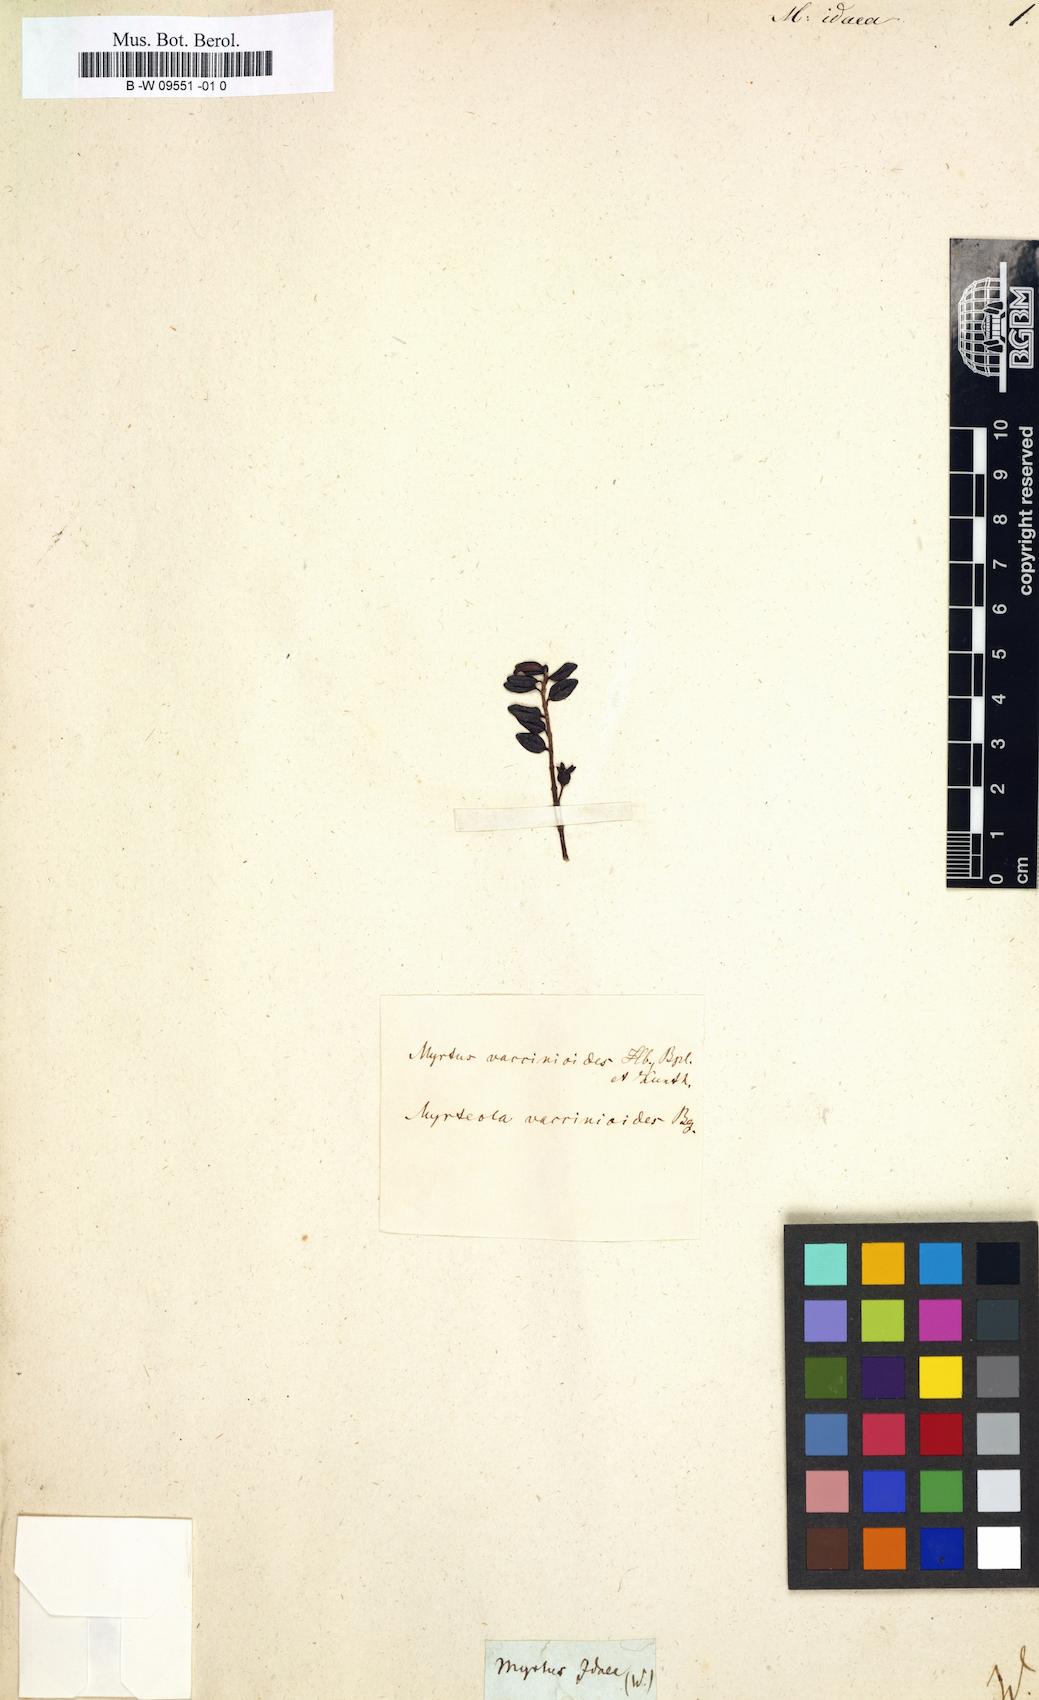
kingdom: Plantae
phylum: Tracheophyta
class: Magnoliopsida
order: Myrtales
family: Myrtaceae
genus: Myrtus
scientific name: Myrtus idaea
